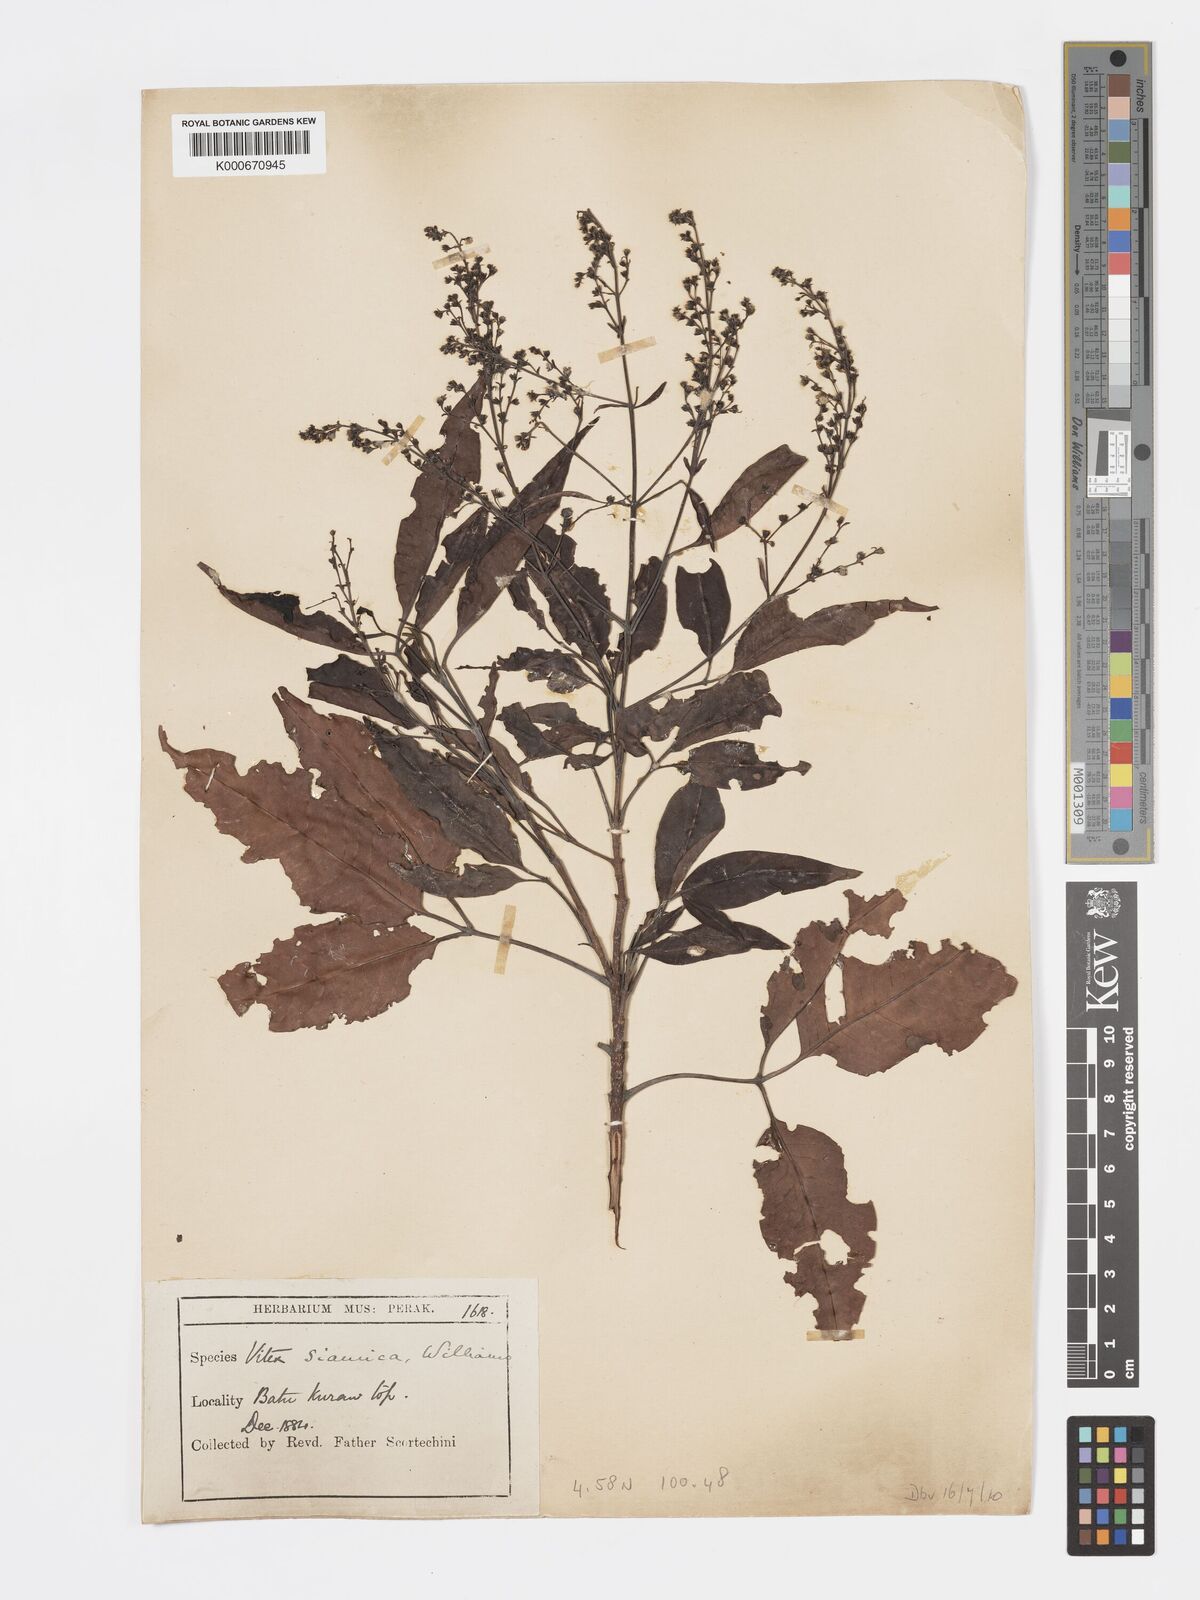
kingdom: Plantae
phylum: Tracheophyta
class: Magnoliopsida
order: Lamiales
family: Lamiaceae
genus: Vitex
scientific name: Vitex siamica
